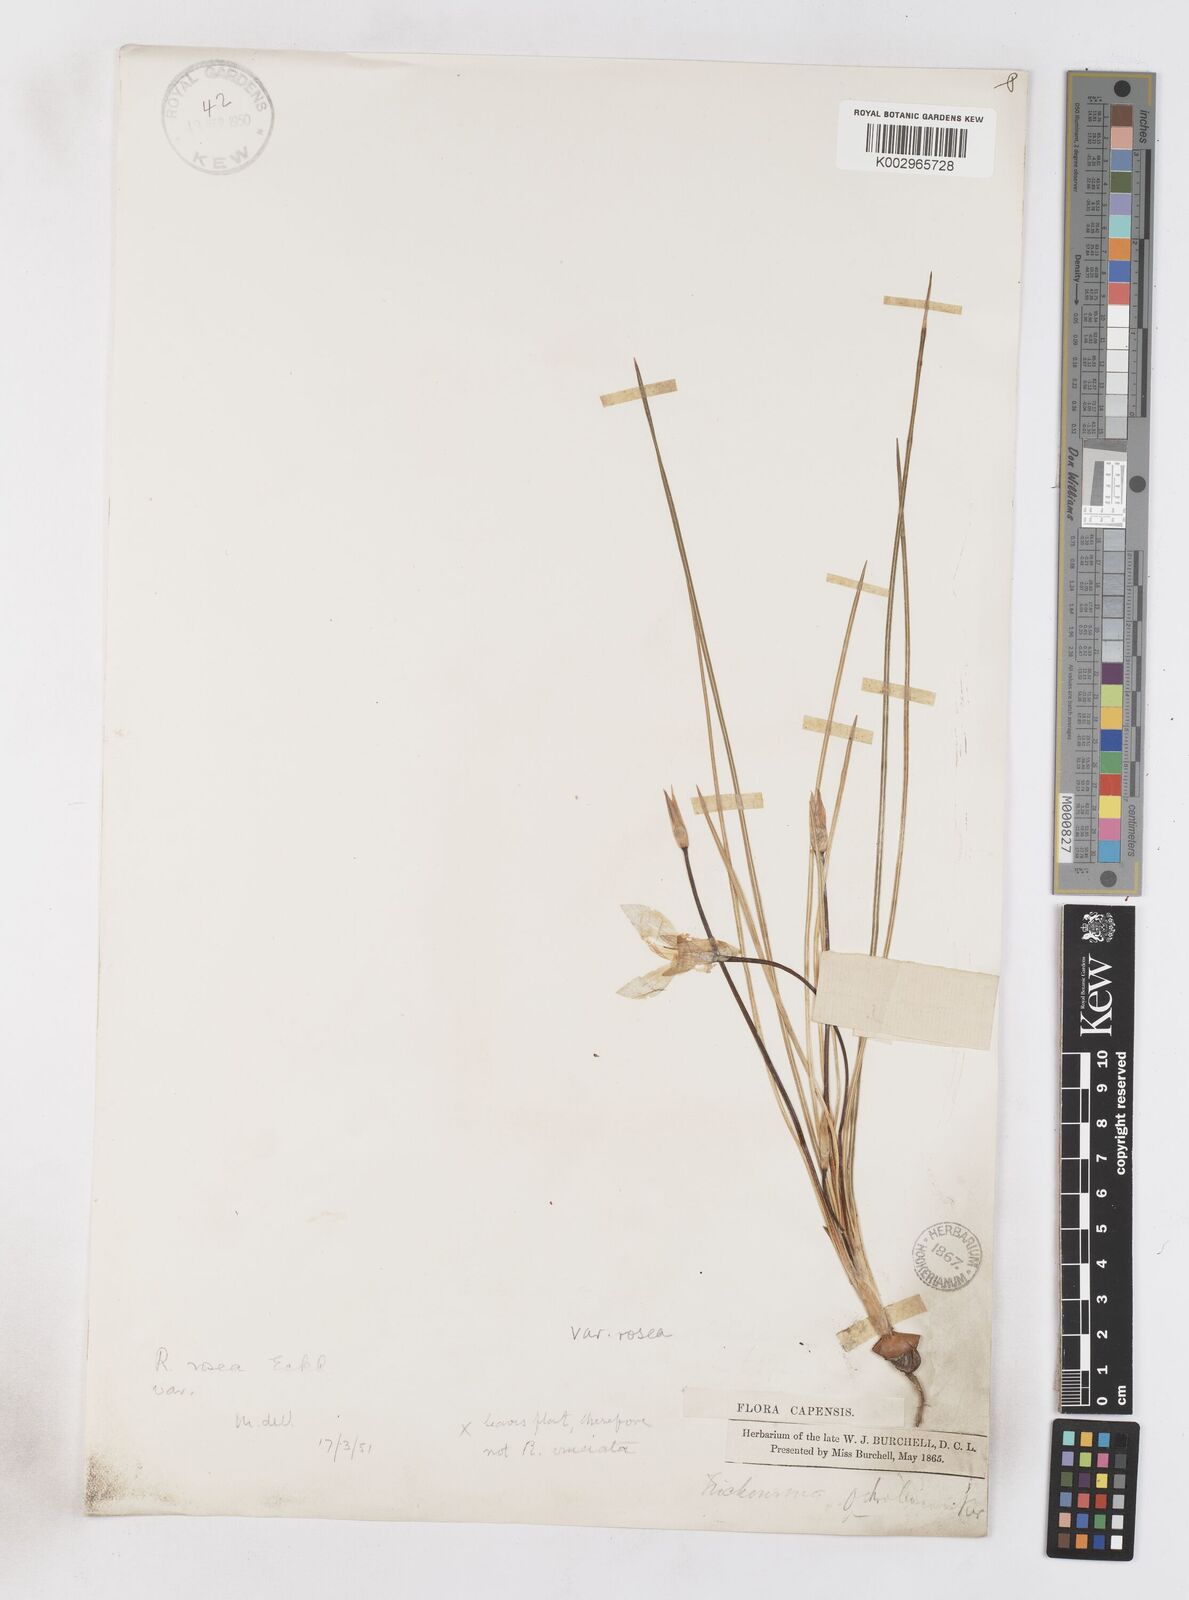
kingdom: Plantae
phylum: Tracheophyta
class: Liliopsida
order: Asparagales
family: Iridaceae
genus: Romulea
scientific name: Romulea rosea
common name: Oniongrass
